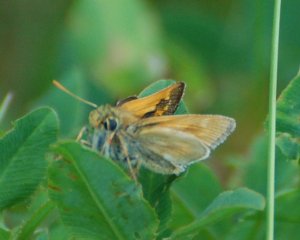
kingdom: Animalia
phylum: Arthropoda
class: Insecta
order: Lepidoptera
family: Hesperiidae
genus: Polites
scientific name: Polites
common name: Long Dash Skipper
